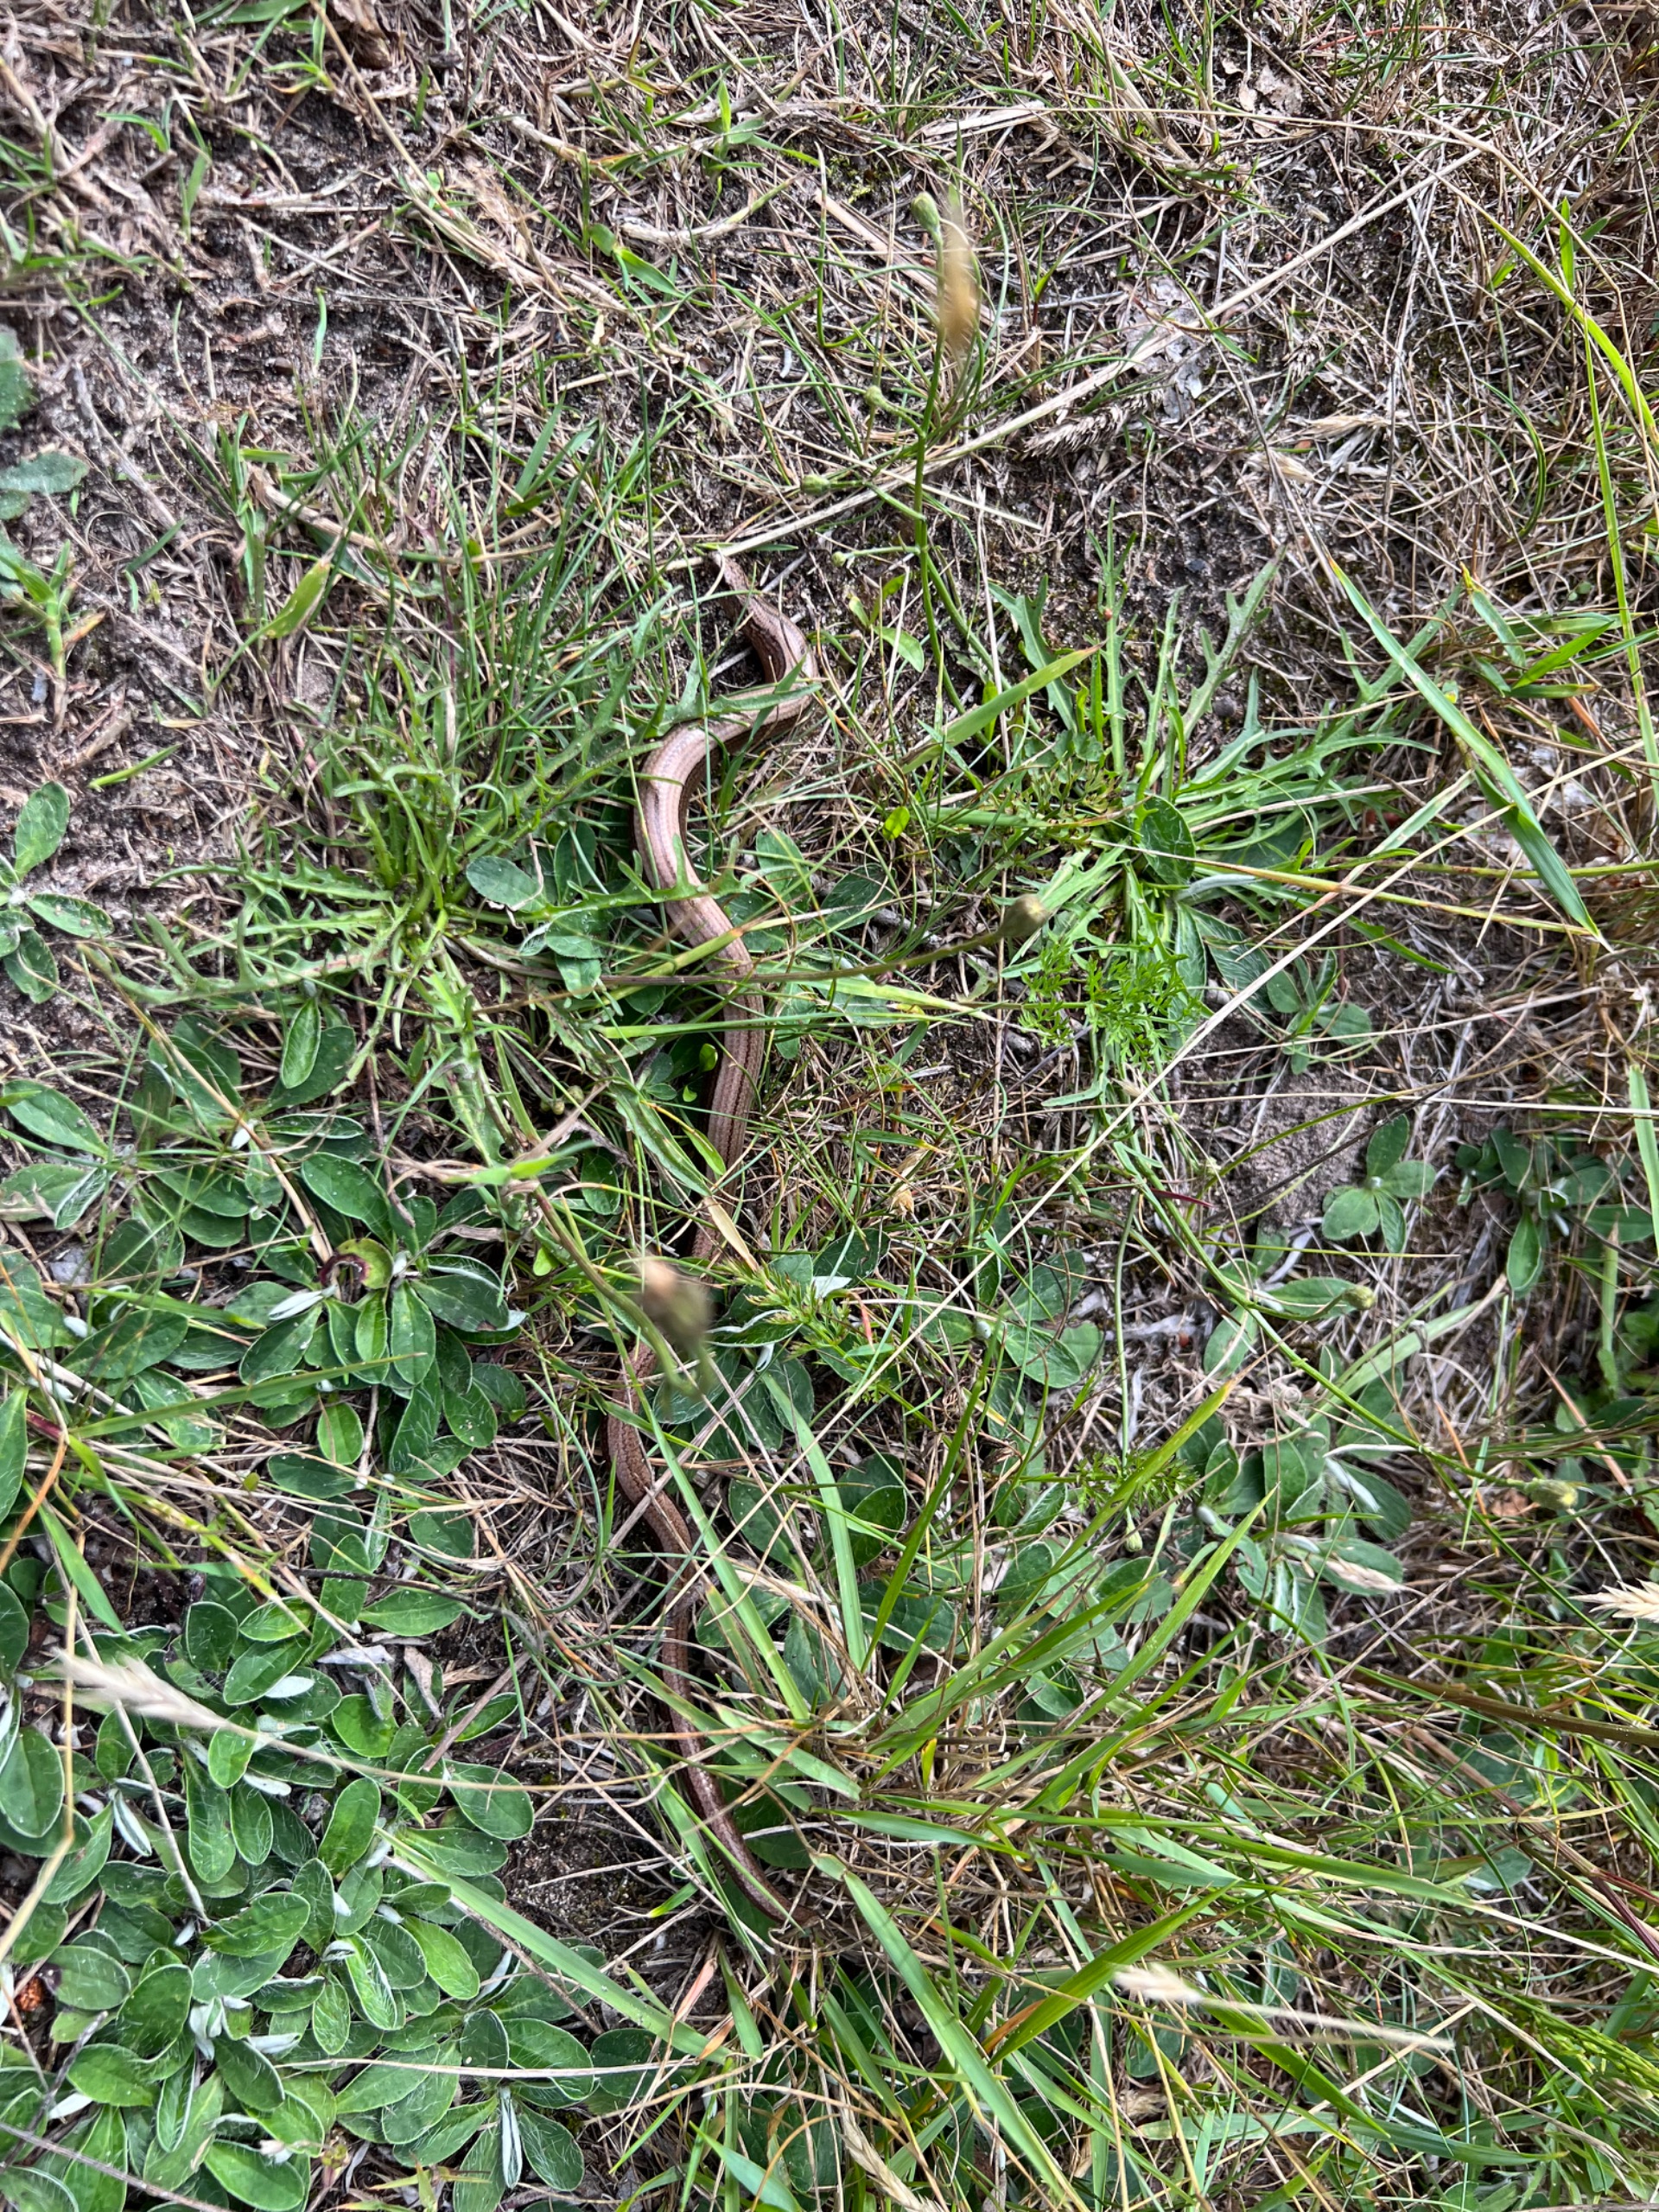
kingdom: Animalia
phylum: Chordata
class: Squamata
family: Anguidae
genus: Anguis
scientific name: Anguis fragilis
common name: Stålorm
